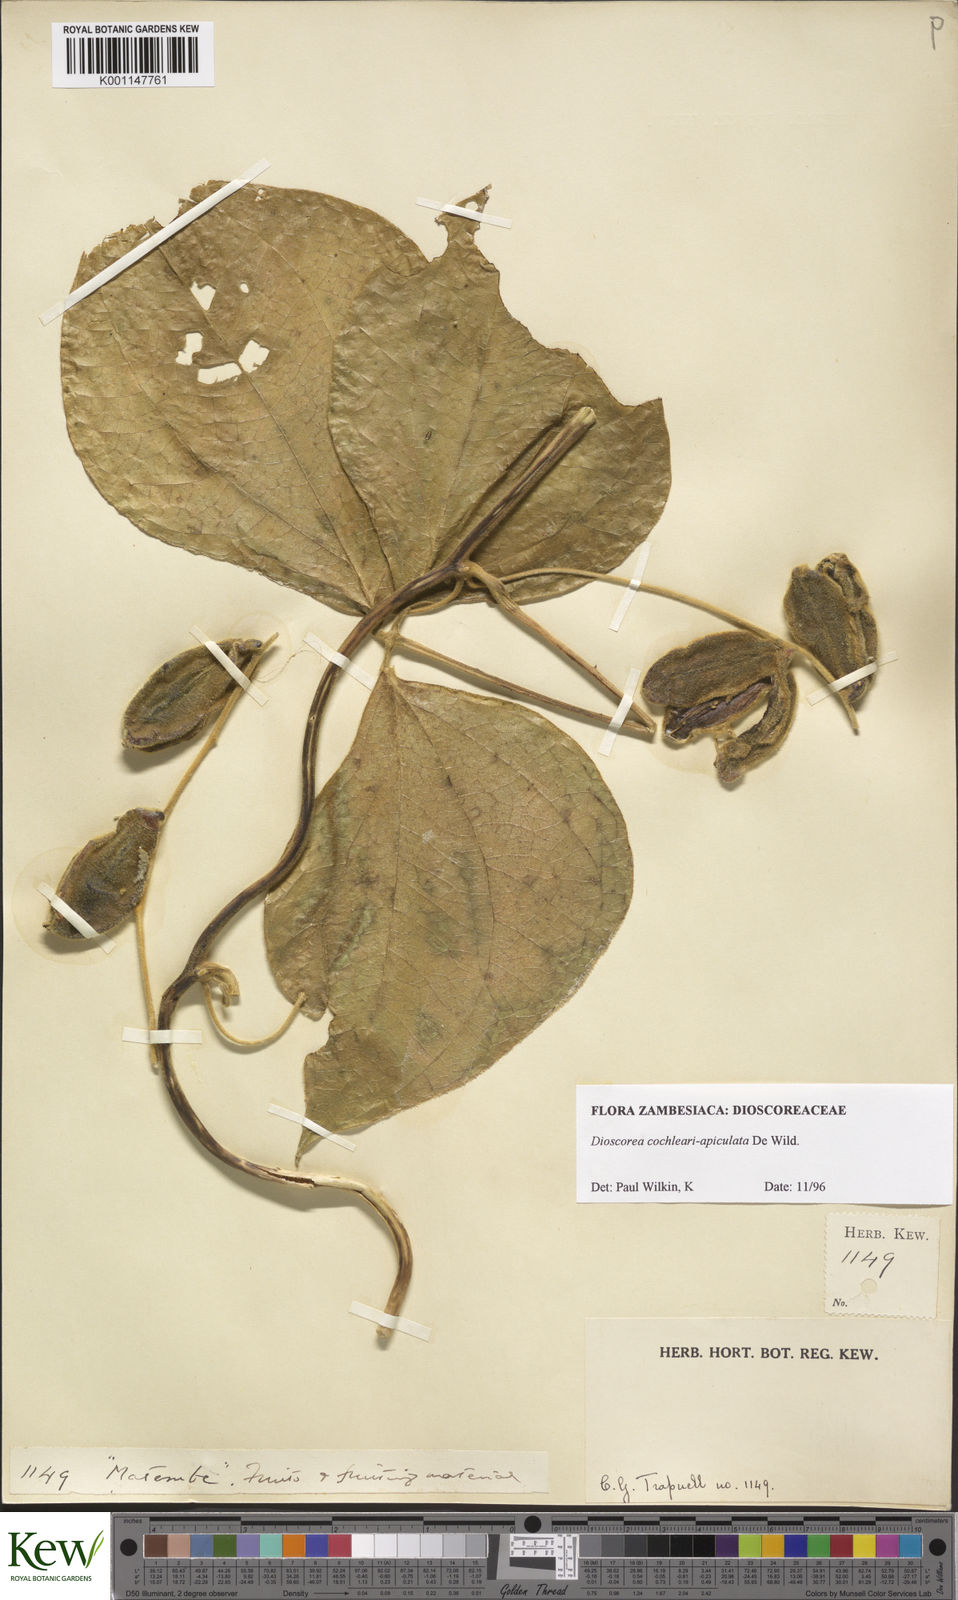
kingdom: Plantae
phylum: Tracheophyta
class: Liliopsida
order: Dioscoreales
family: Dioscoreaceae
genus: Dioscorea
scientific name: Dioscorea cochleariapiculata
